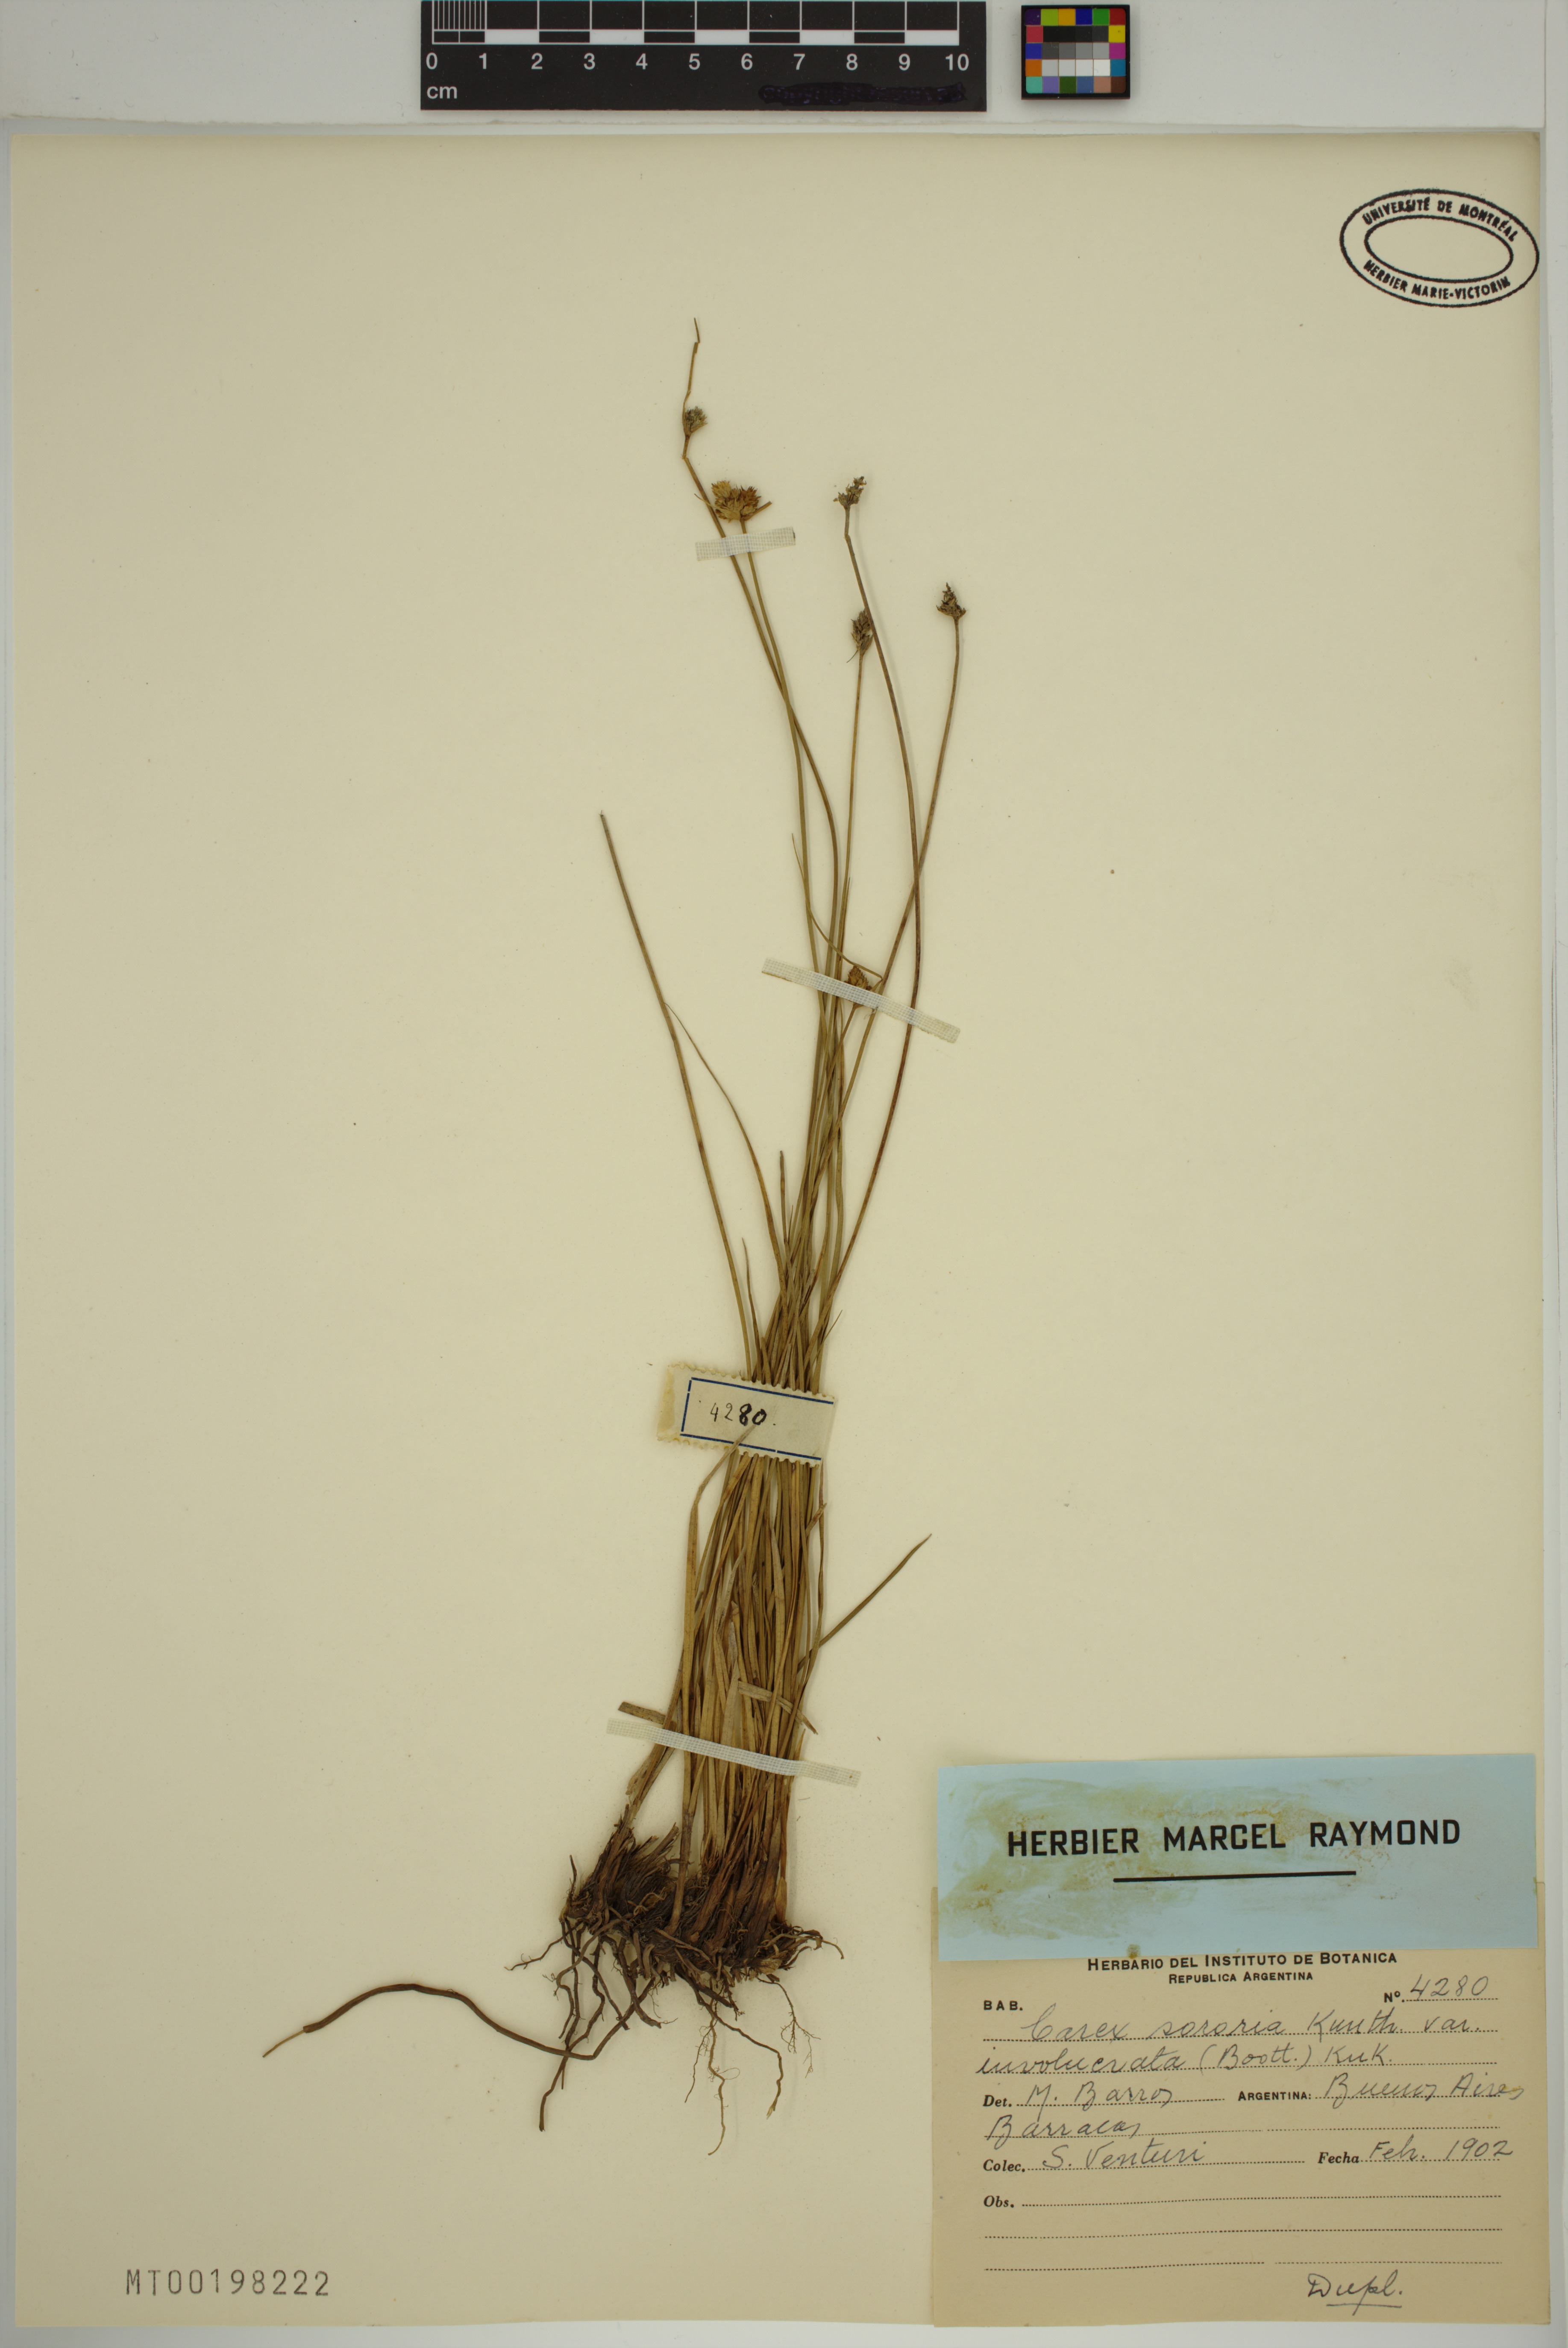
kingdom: Plantae
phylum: Tracheophyta
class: Liliopsida
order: Poales
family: Cyperaceae
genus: Carex
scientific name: Carex fossa
